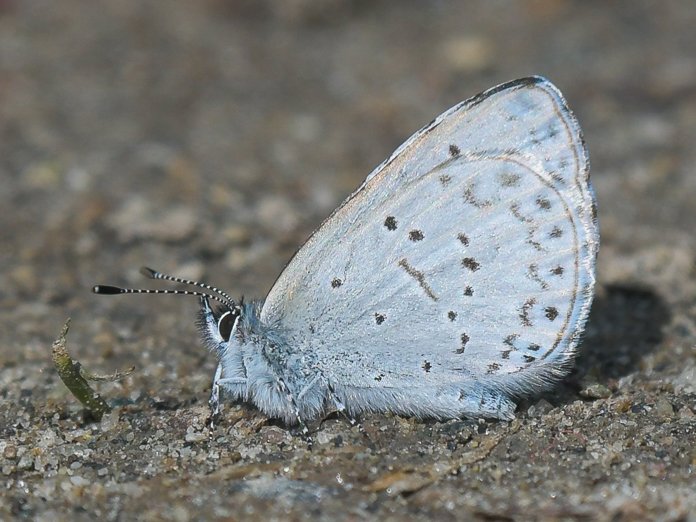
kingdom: Animalia
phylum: Arthropoda
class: Insecta
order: Lepidoptera
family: Lycaenidae
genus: Celastrina
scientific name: Celastrina ladon
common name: Echo Azure
